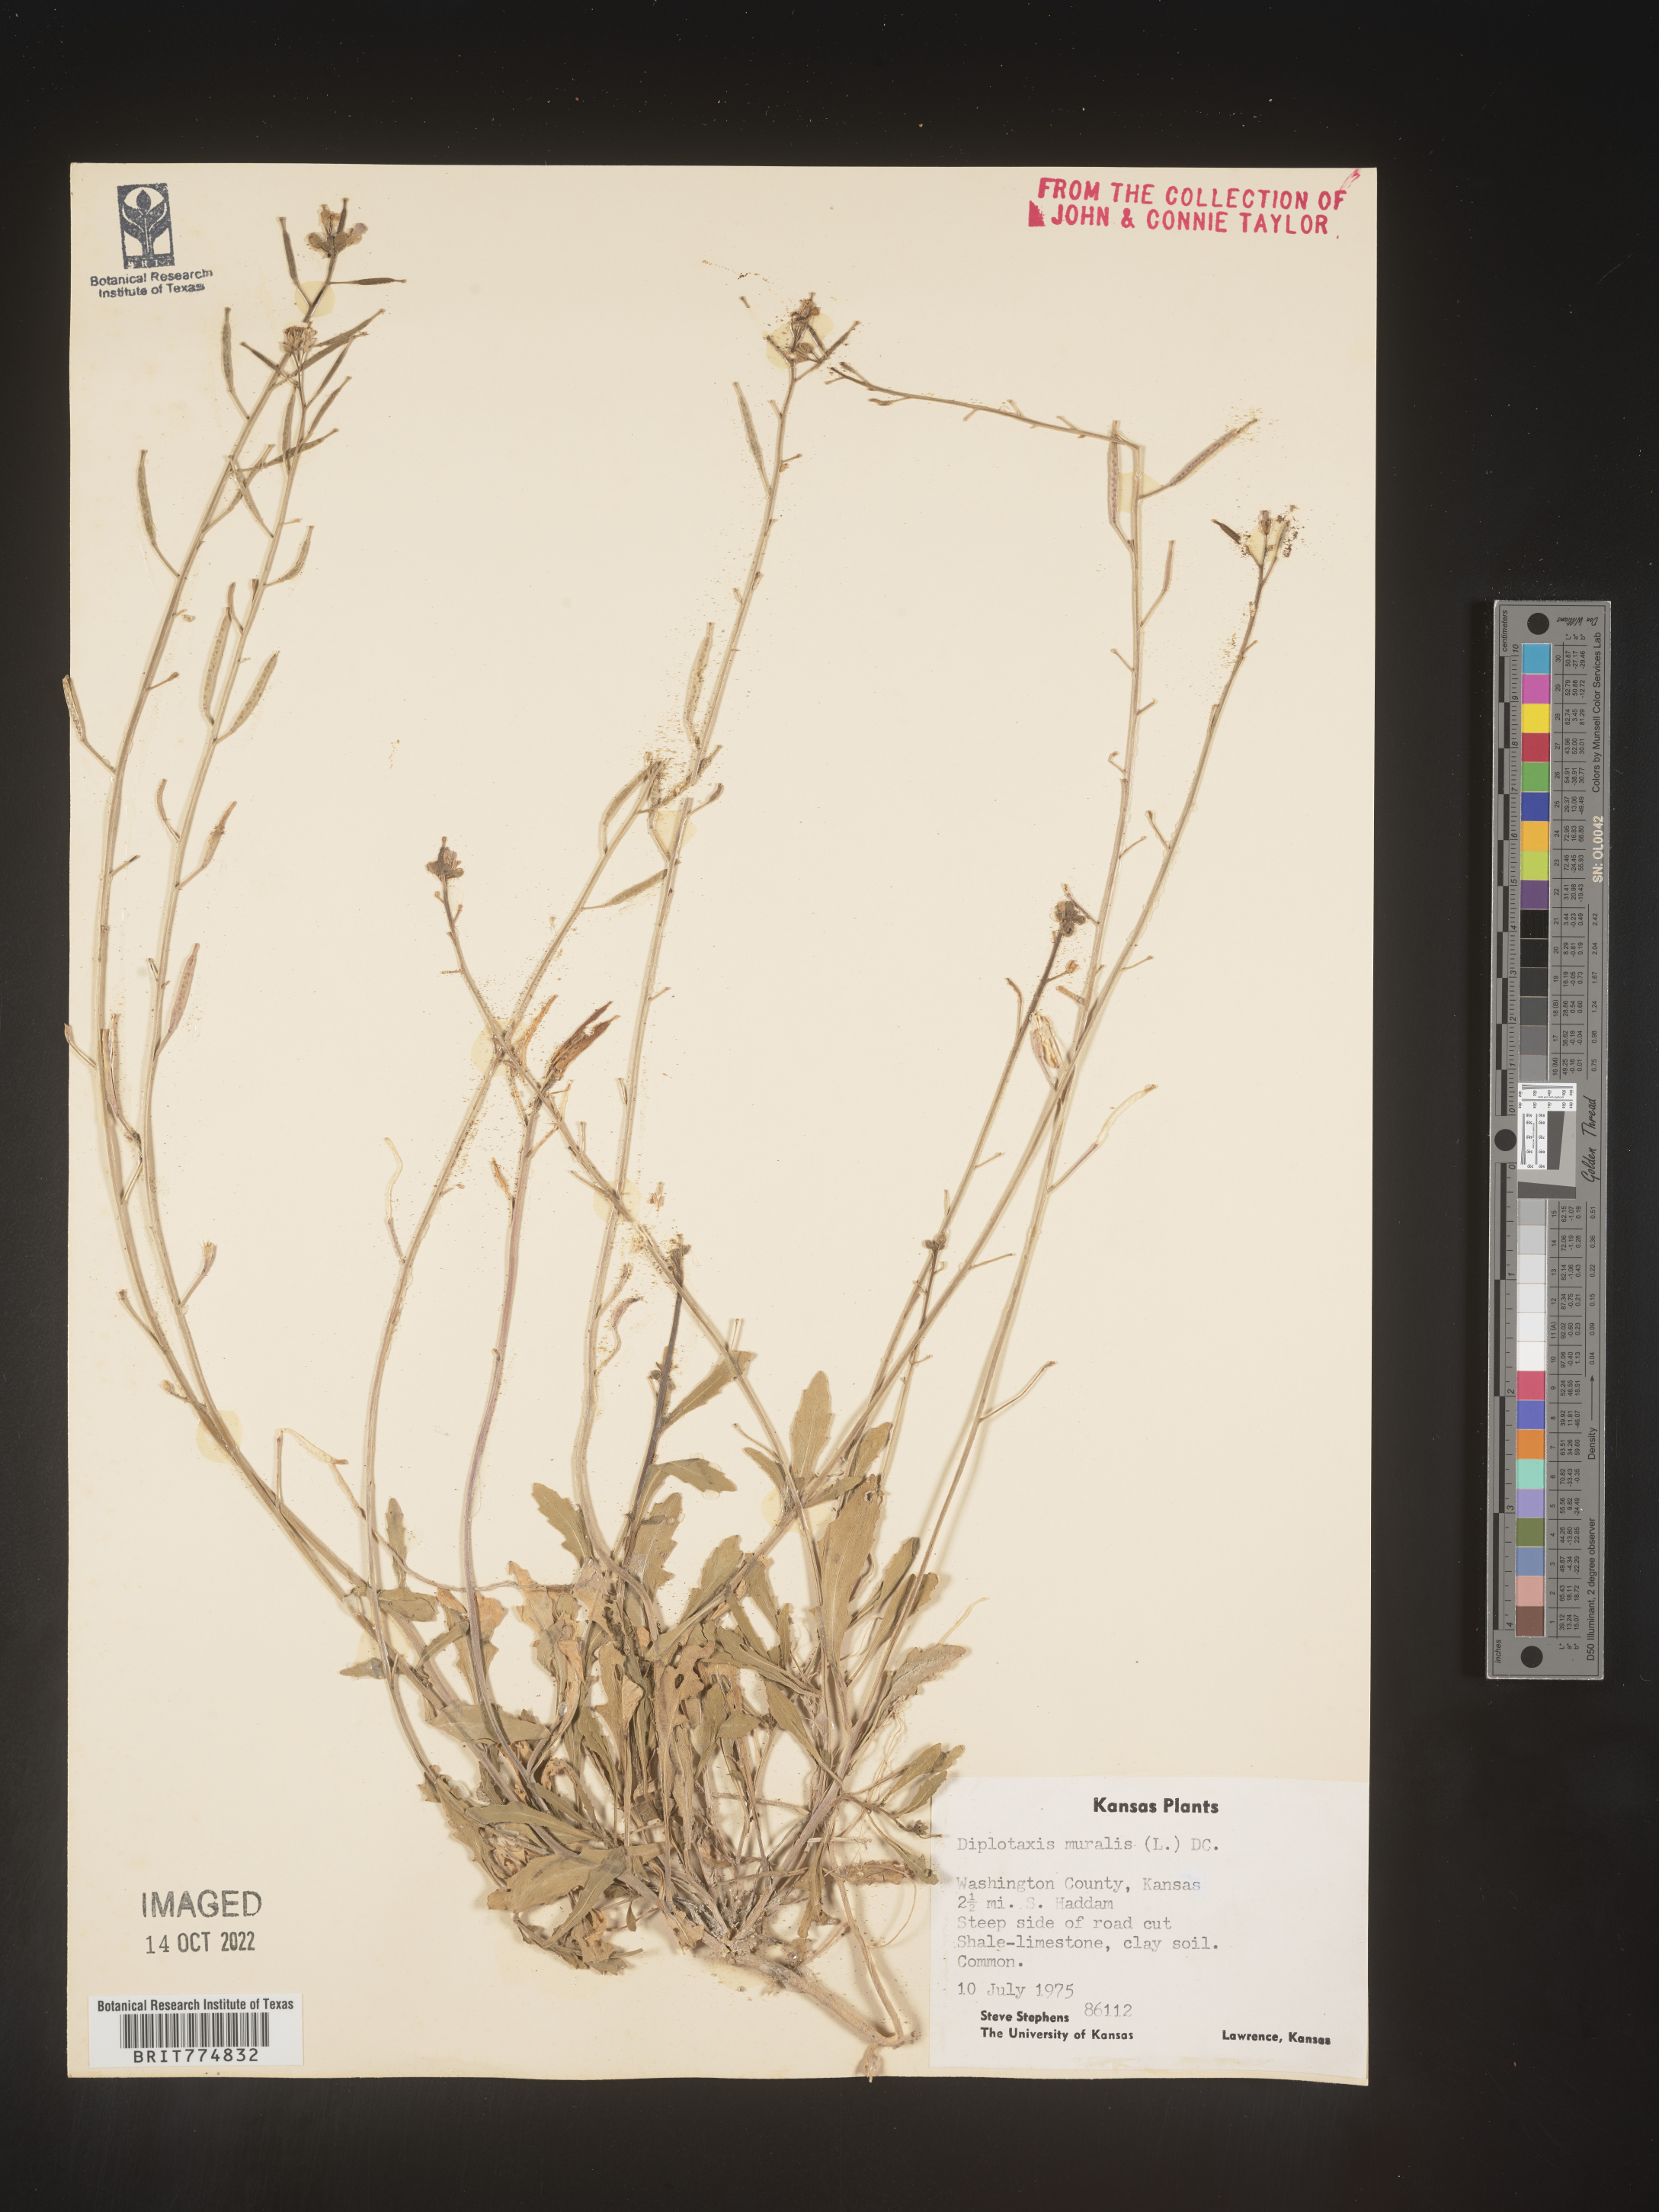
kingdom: Plantae
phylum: Tracheophyta
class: Magnoliopsida
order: Brassicales
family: Brassicaceae
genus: Diplotaxis
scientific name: Diplotaxis
